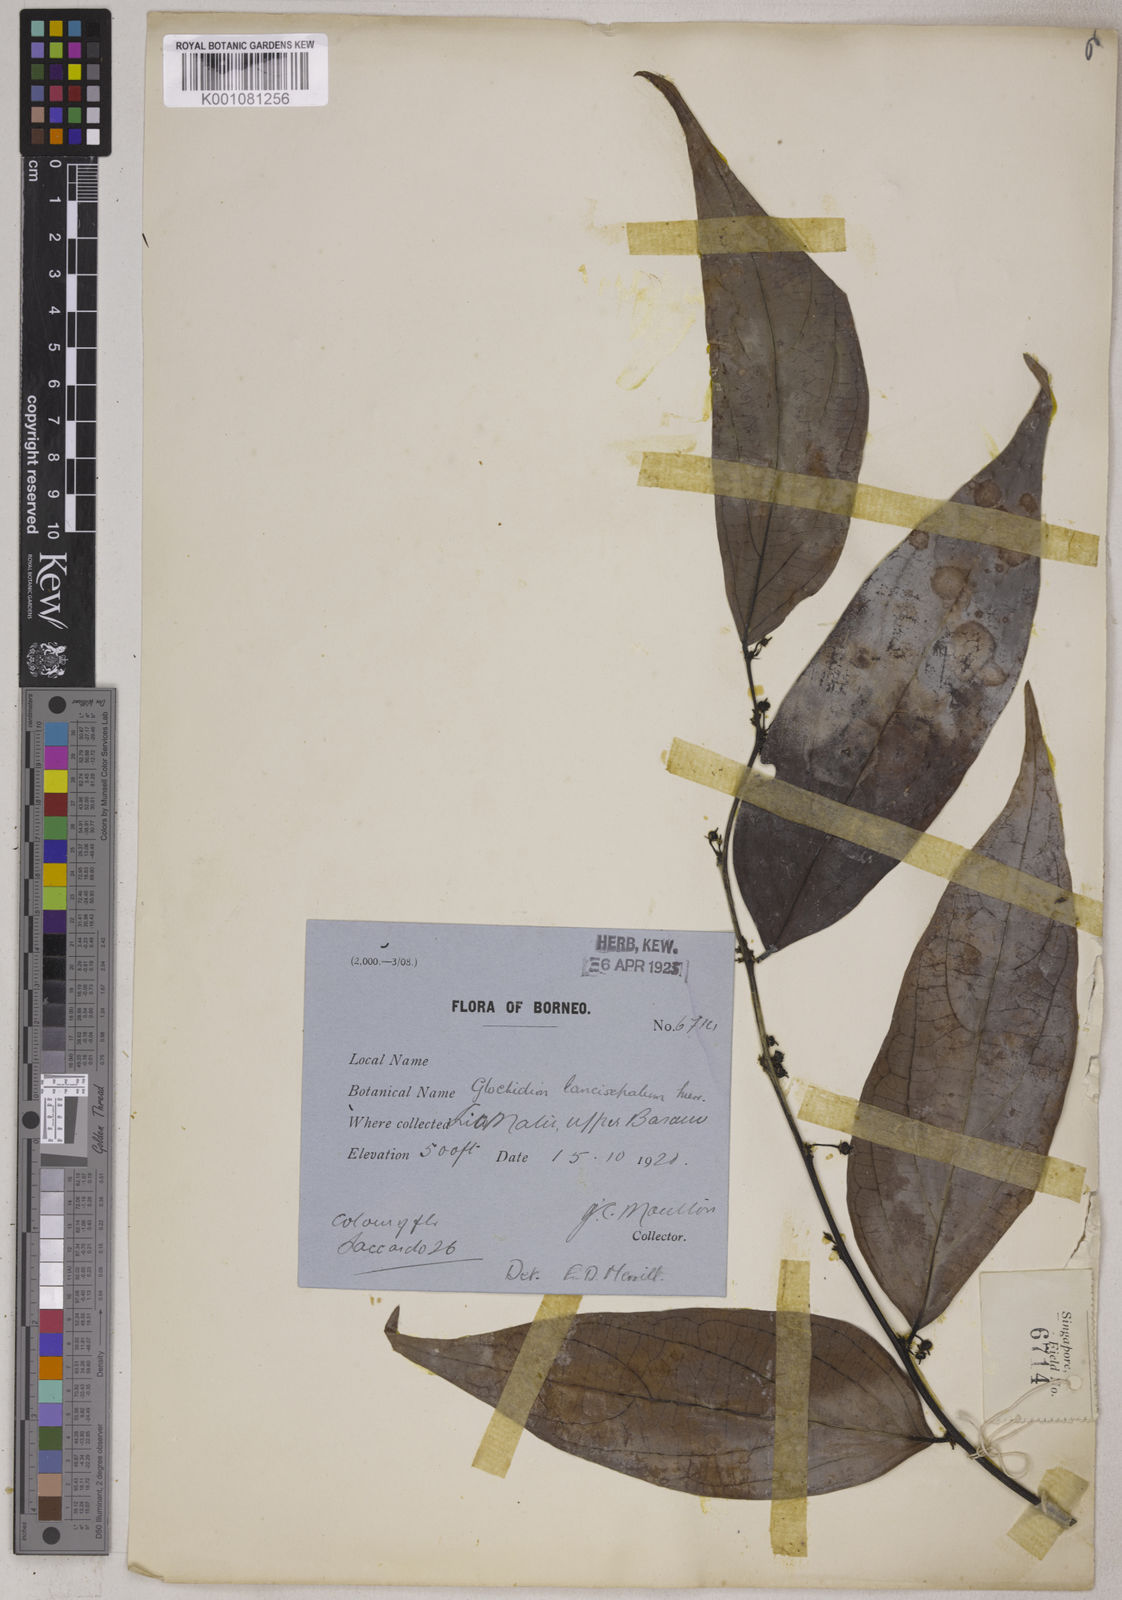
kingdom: Plantae
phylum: Tracheophyta
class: Magnoliopsida
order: Malpighiales
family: Phyllanthaceae
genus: Glochidion
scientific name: Glochidion lancisepalum
